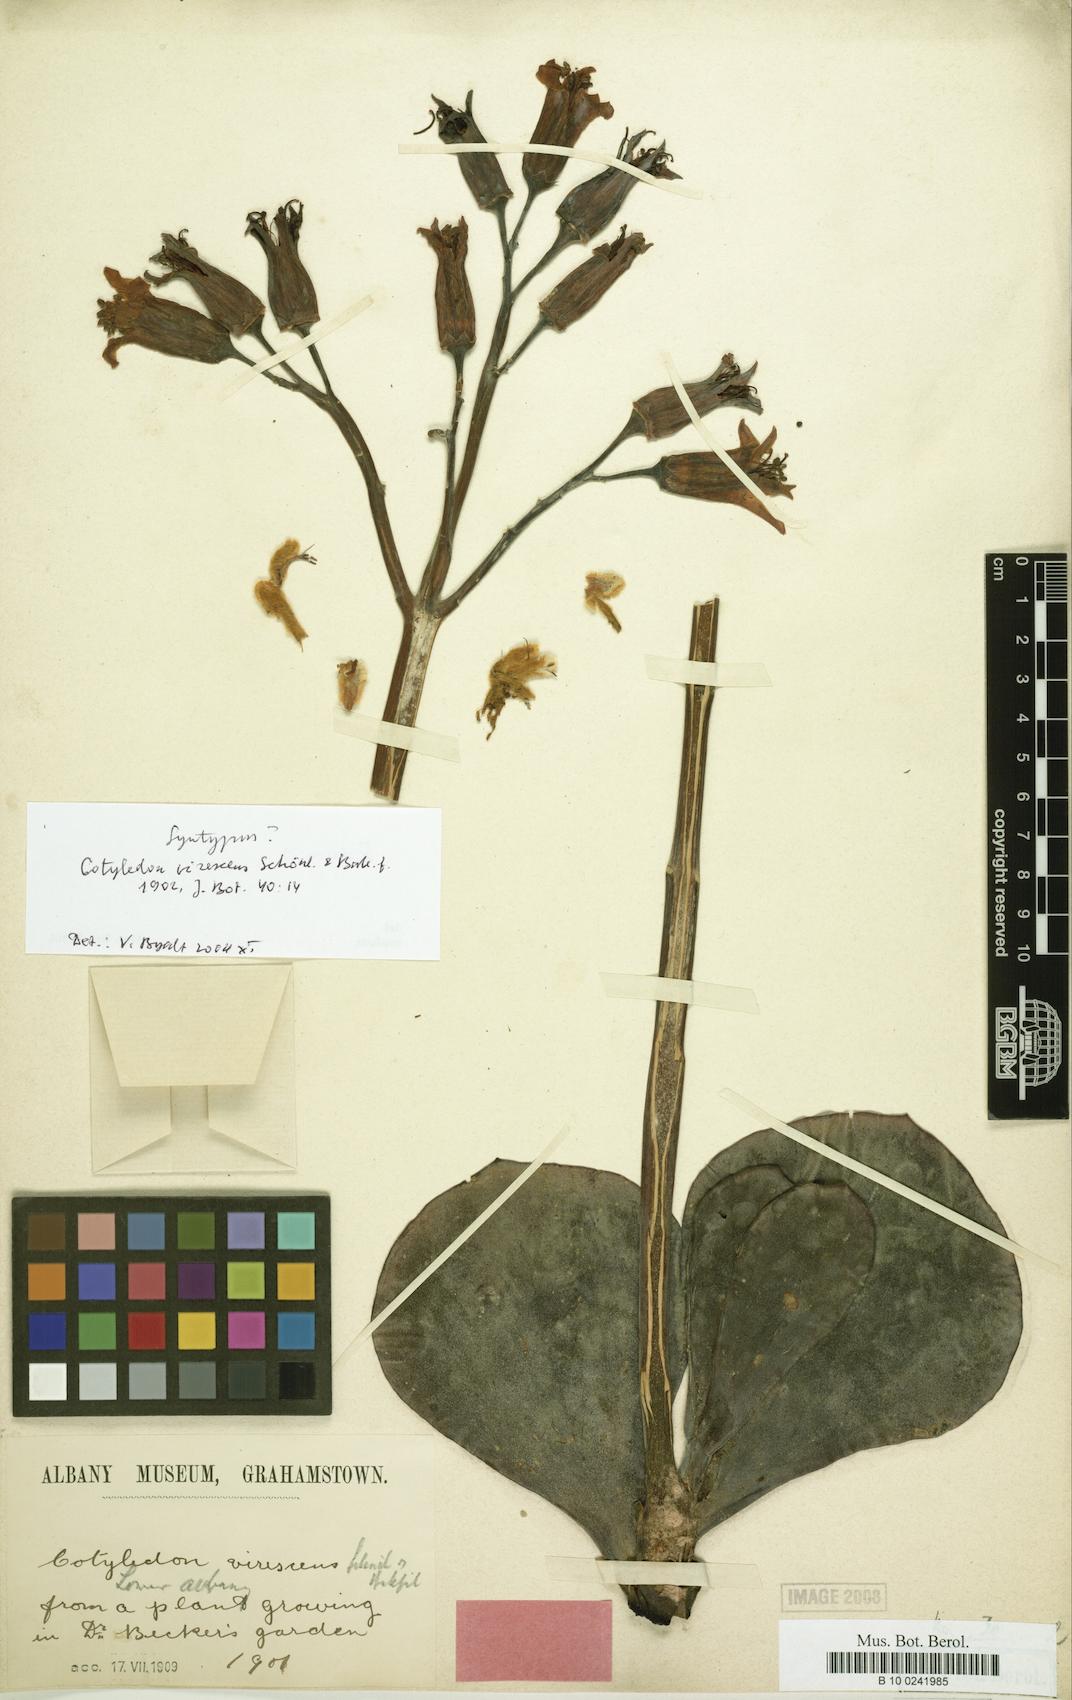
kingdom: Plantae
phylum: Tracheophyta
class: Magnoliopsida
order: Saxifragales
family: Crassulaceae
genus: Cotyledon
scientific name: Cotyledon orbiculata
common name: Pig's ear
